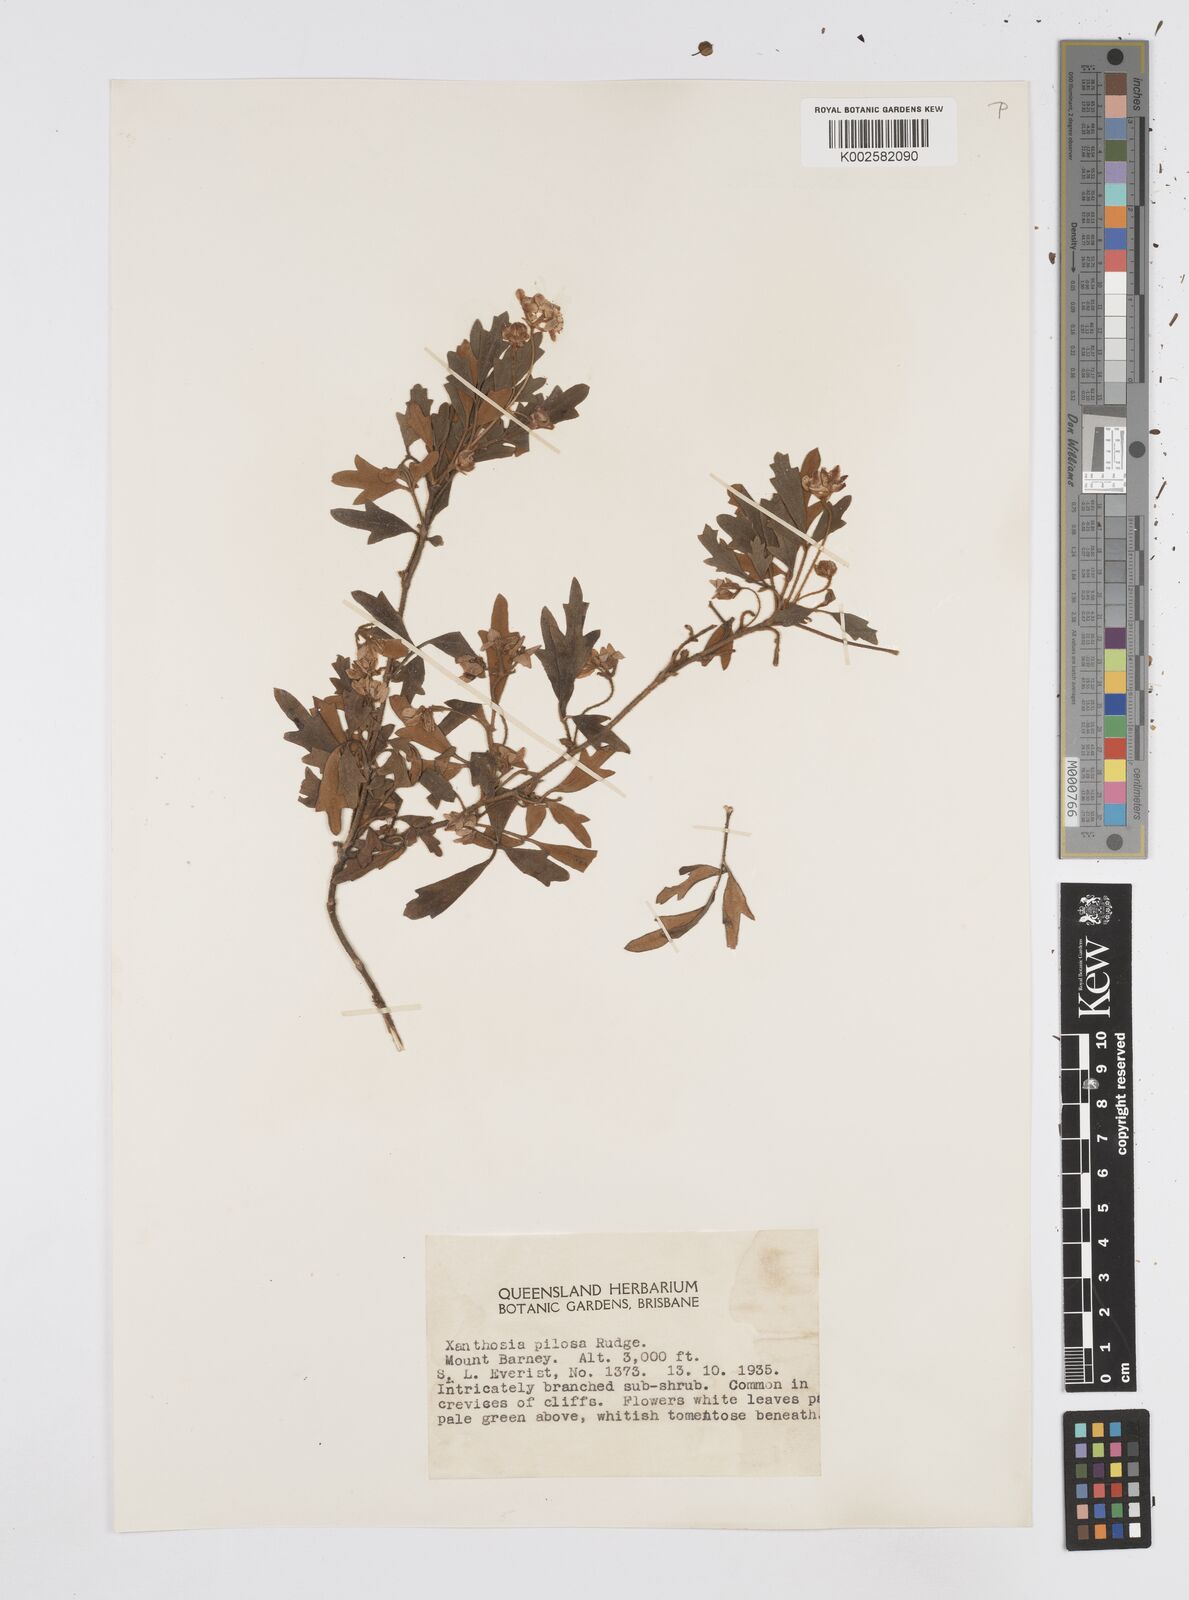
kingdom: Plantae
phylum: Tracheophyta
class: Magnoliopsida
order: Apiales
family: Apiaceae
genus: Xanthosia
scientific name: Xanthosia pilosa
